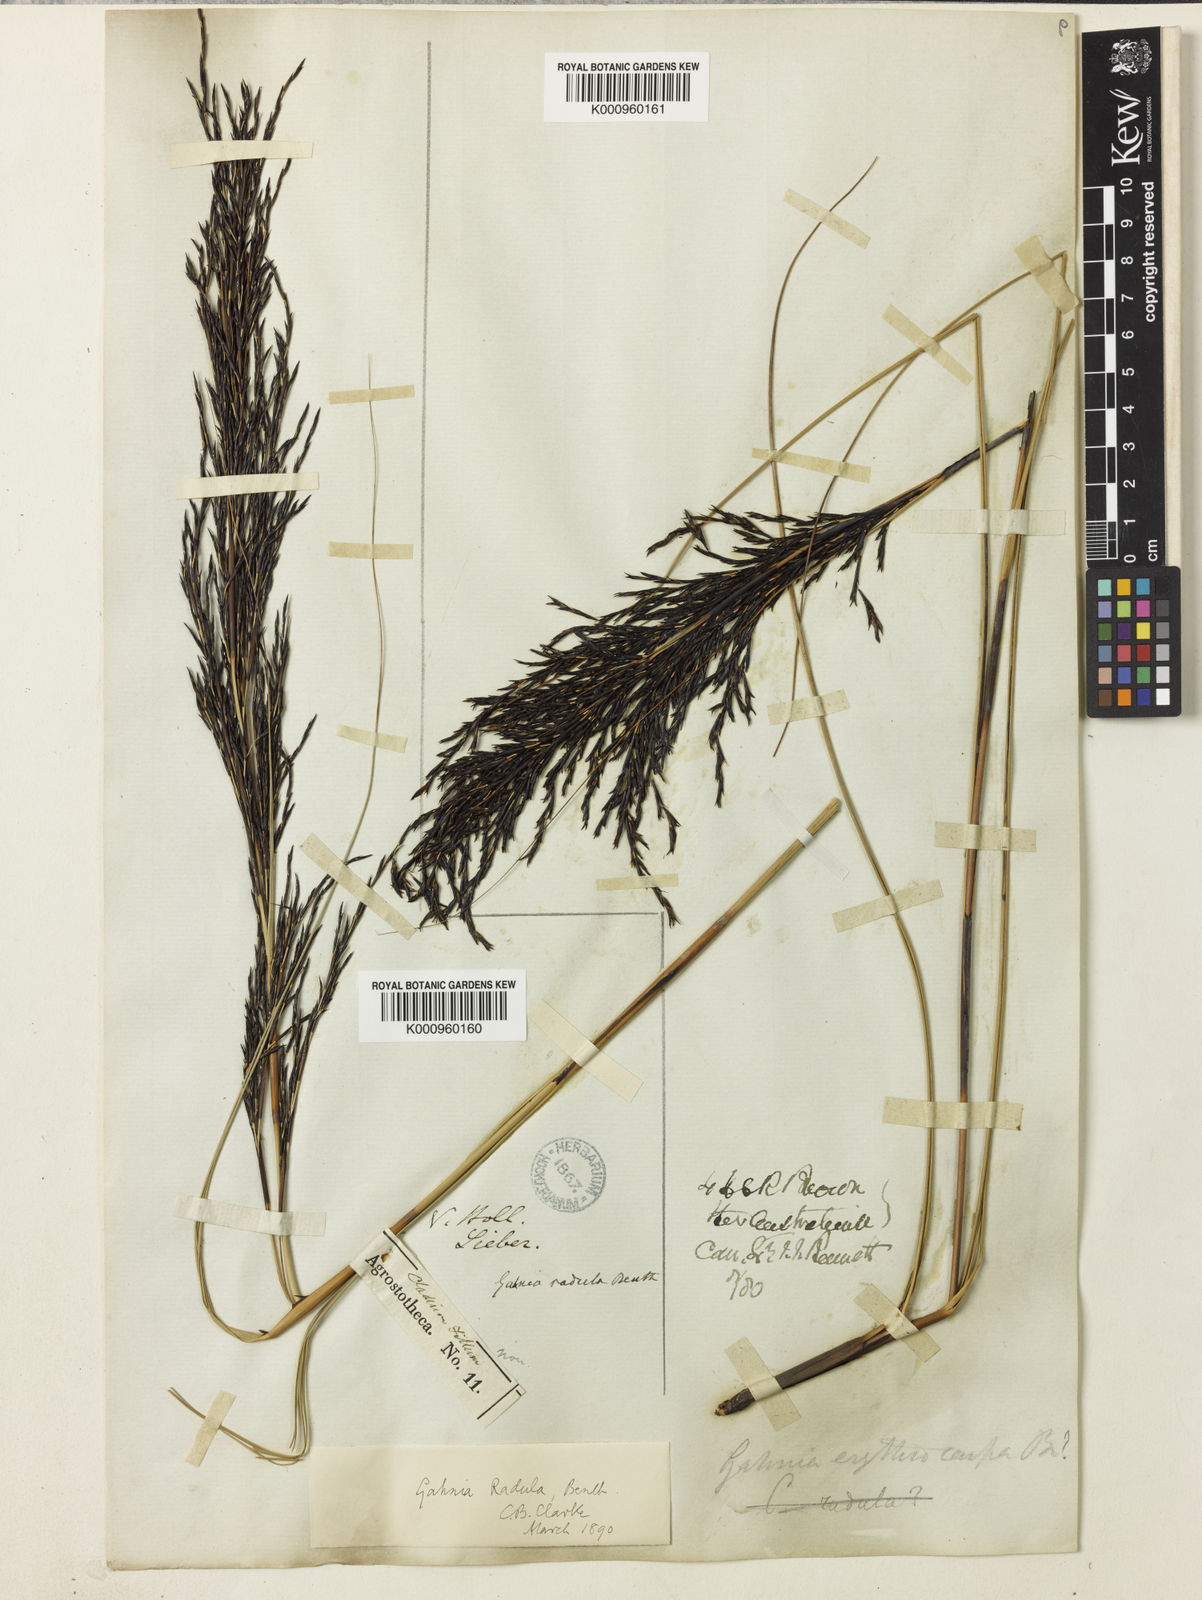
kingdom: Plantae
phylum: Tracheophyta
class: Liliopsida
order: Poales
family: Cyperaceae
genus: Gahnia
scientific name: Gahnia radula
